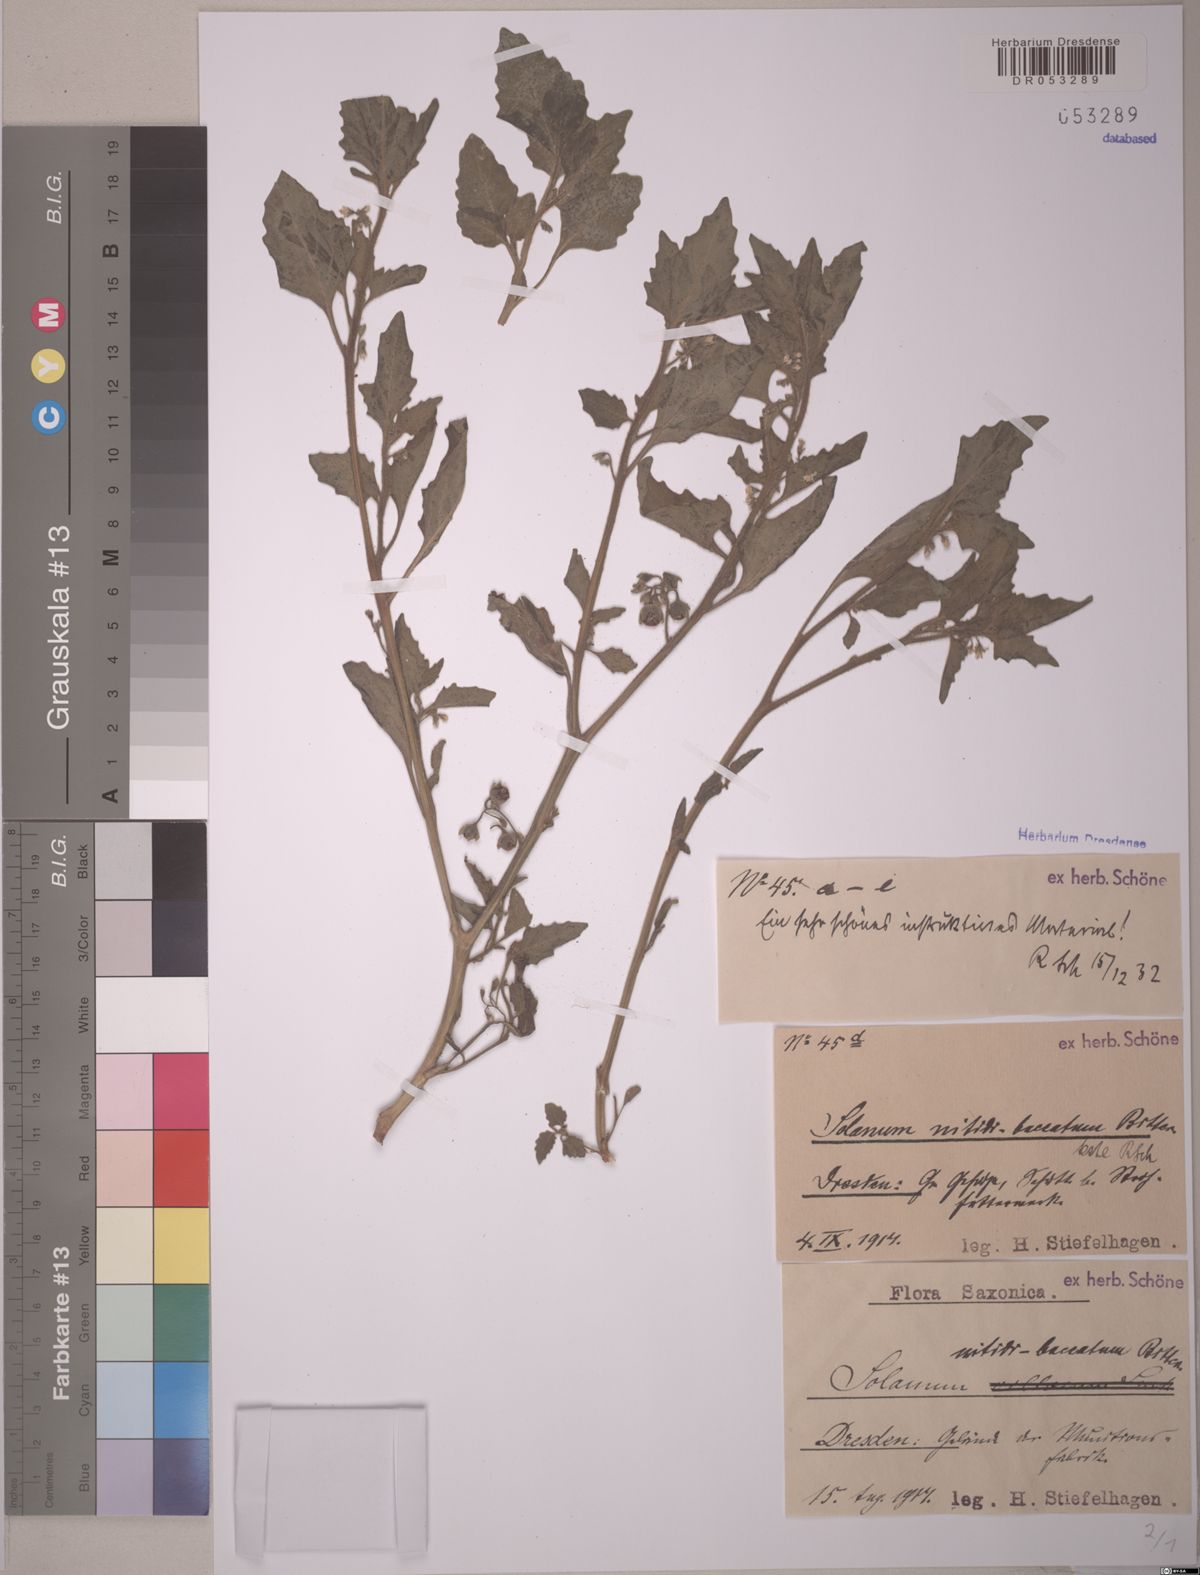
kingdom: Plantae
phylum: Tracheophyta
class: Magnoliopsida
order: Solanales
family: Solanaceae
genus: Solanum
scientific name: Solanum nitidibaccatum
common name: Hairy nightshade
